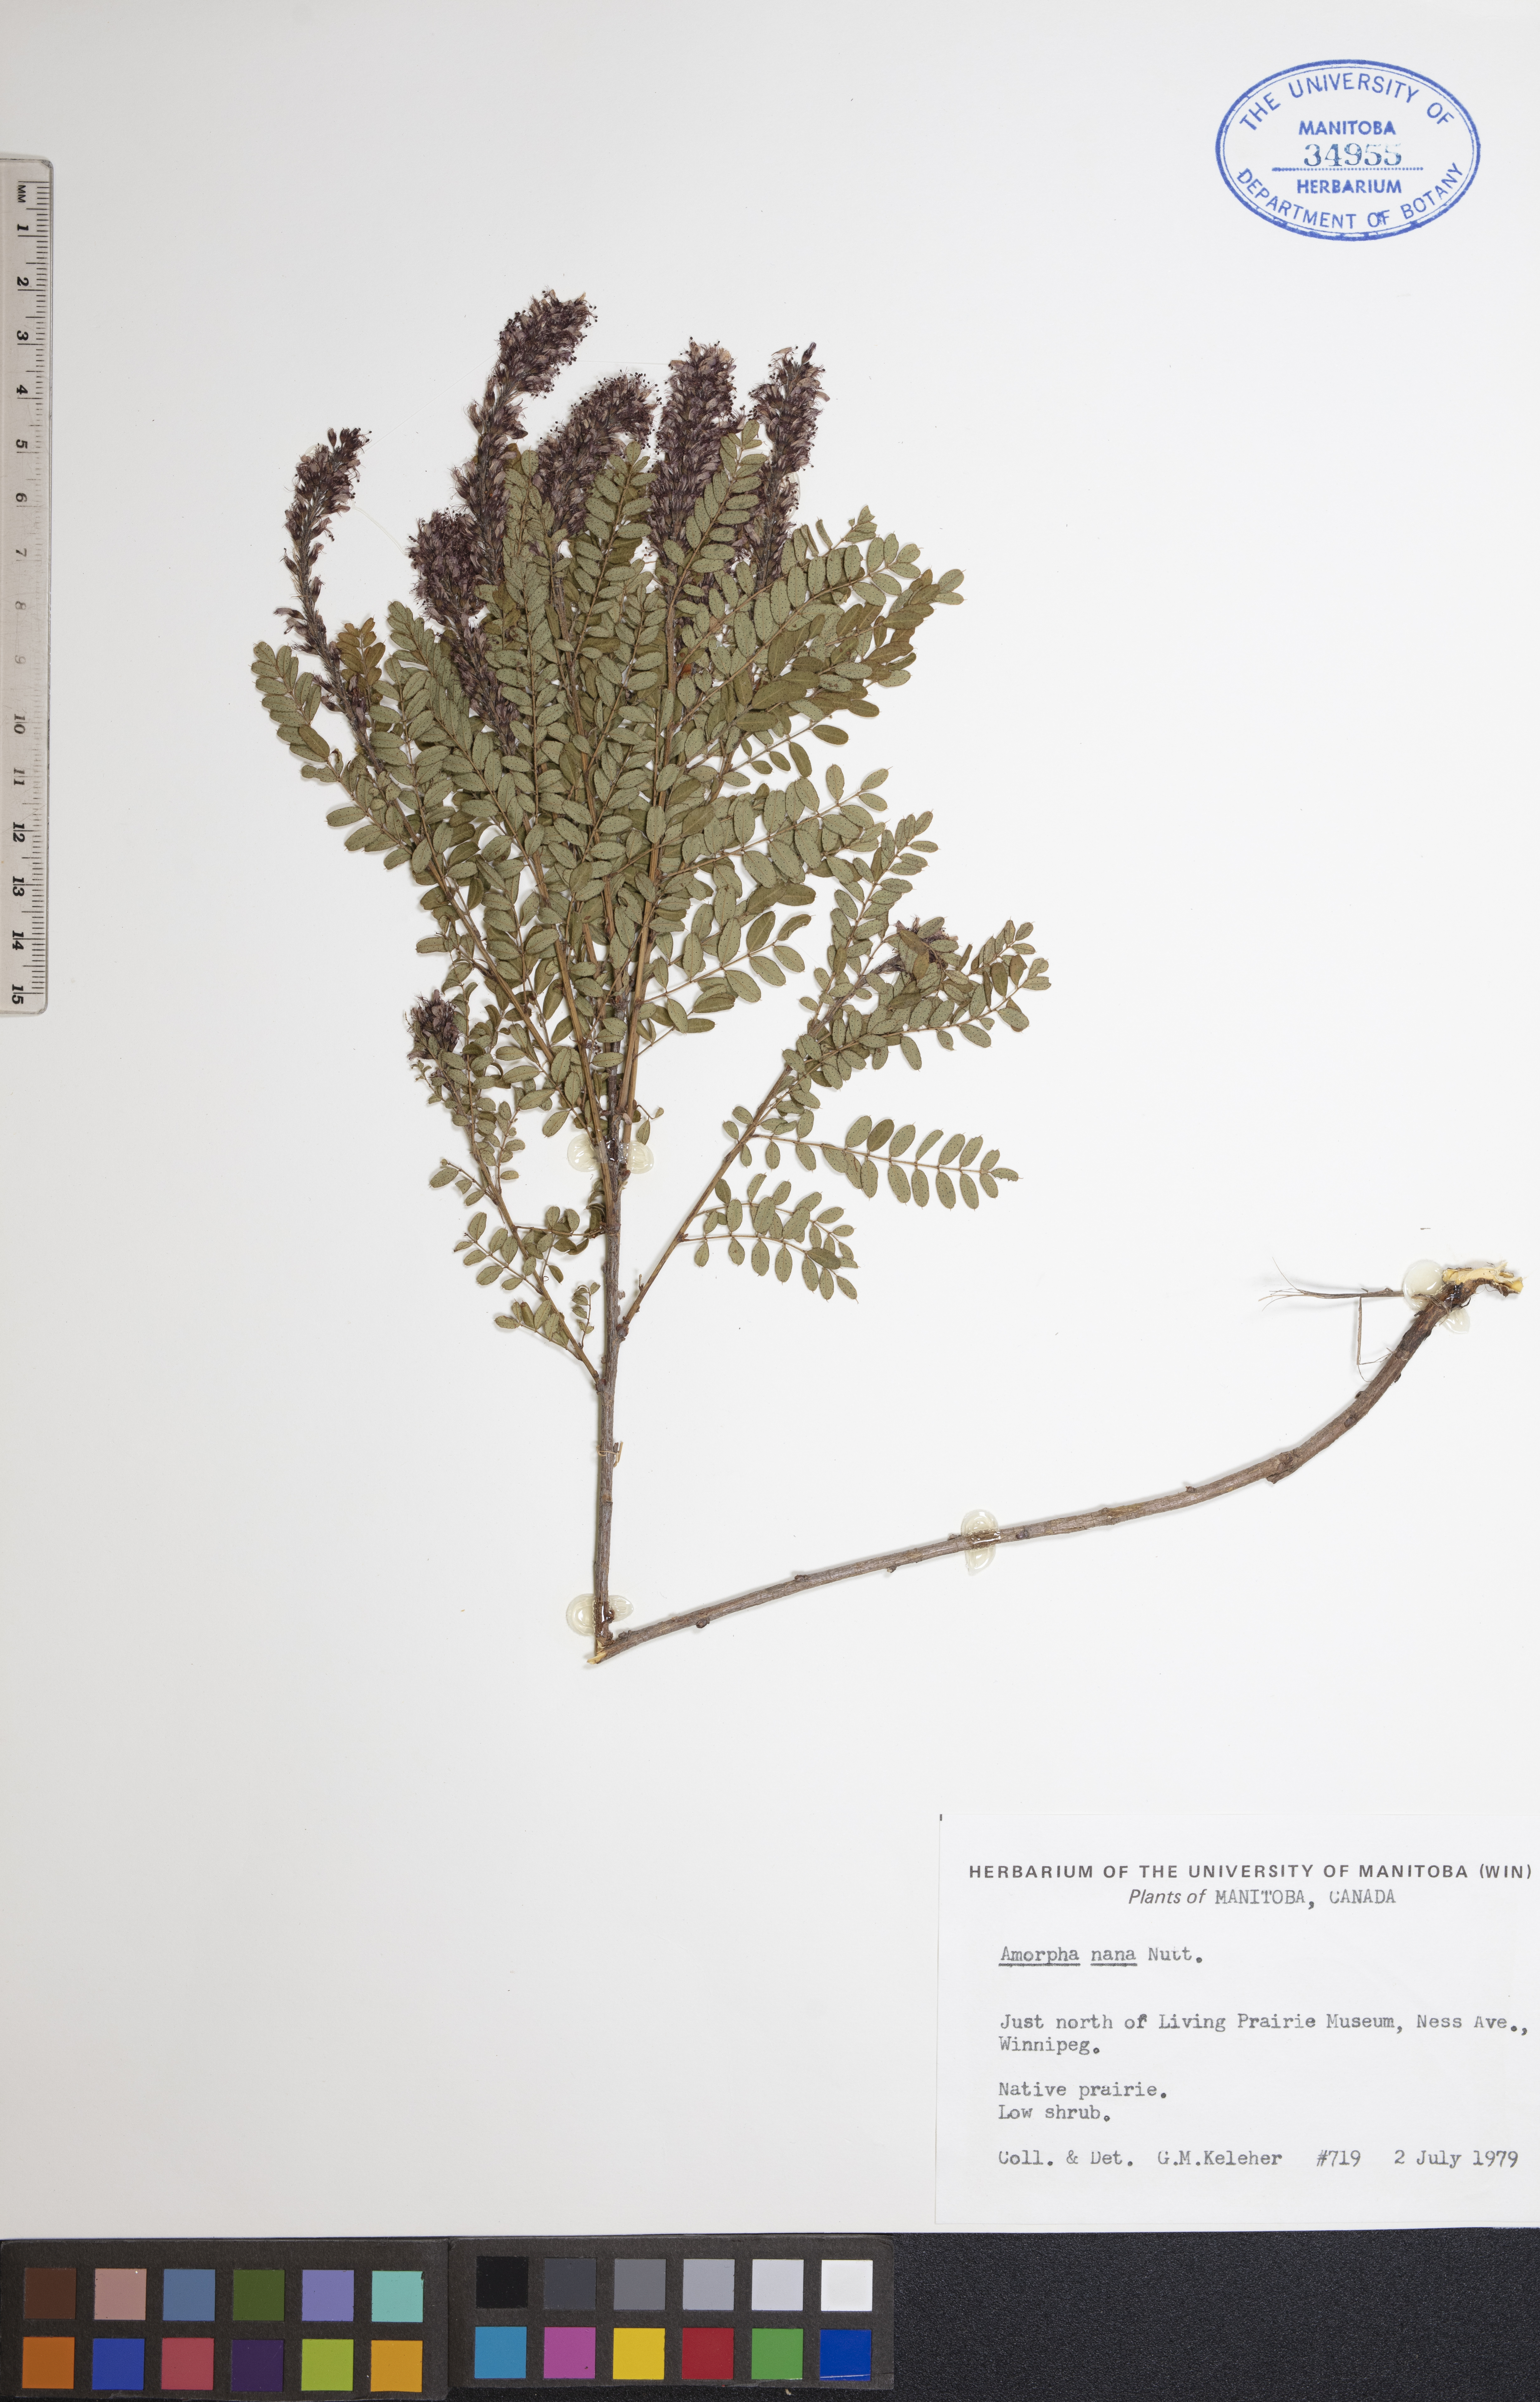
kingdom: Plantae
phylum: Tracheophyta
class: Magnoliopsida
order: Fabales
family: Fabaceae
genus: Amorpha
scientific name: Amorpha nana
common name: Fragrant false indigo
